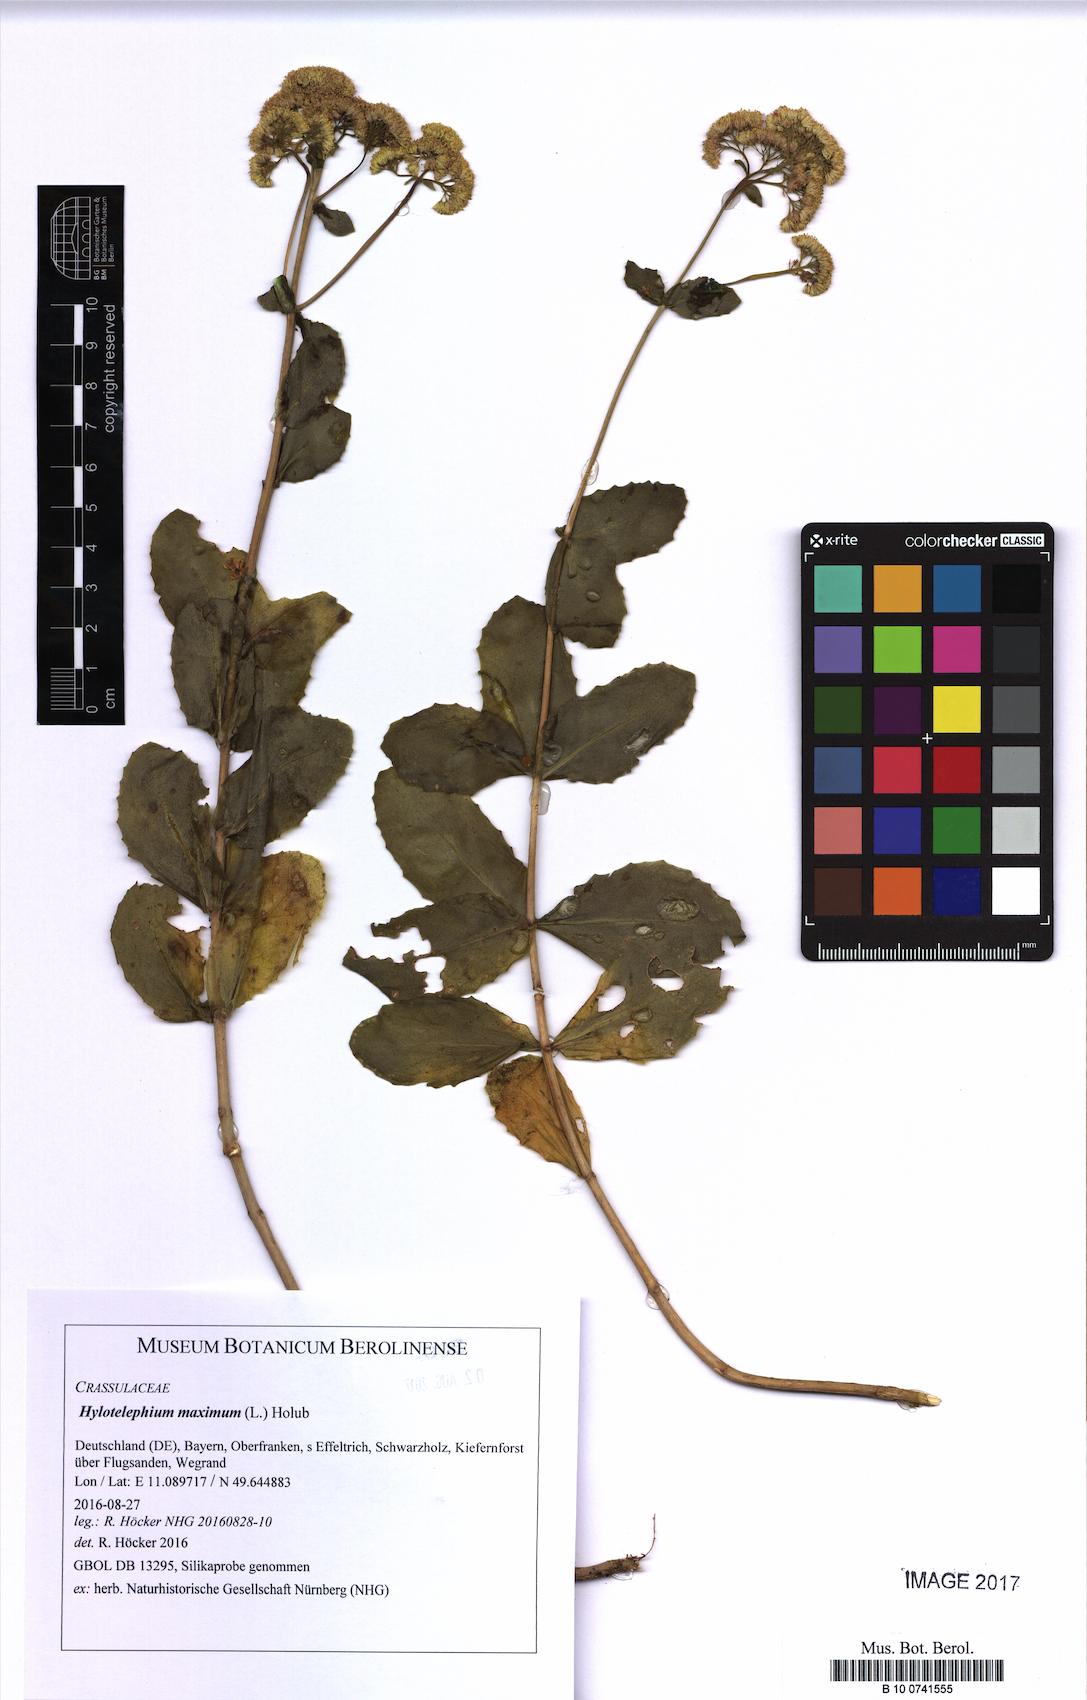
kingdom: Plantae
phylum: Tracheophyta
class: Magnoliopsida
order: Saxifragales
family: Crassulaceae
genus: Hylotelephium
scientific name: Hylotelephium maximum
